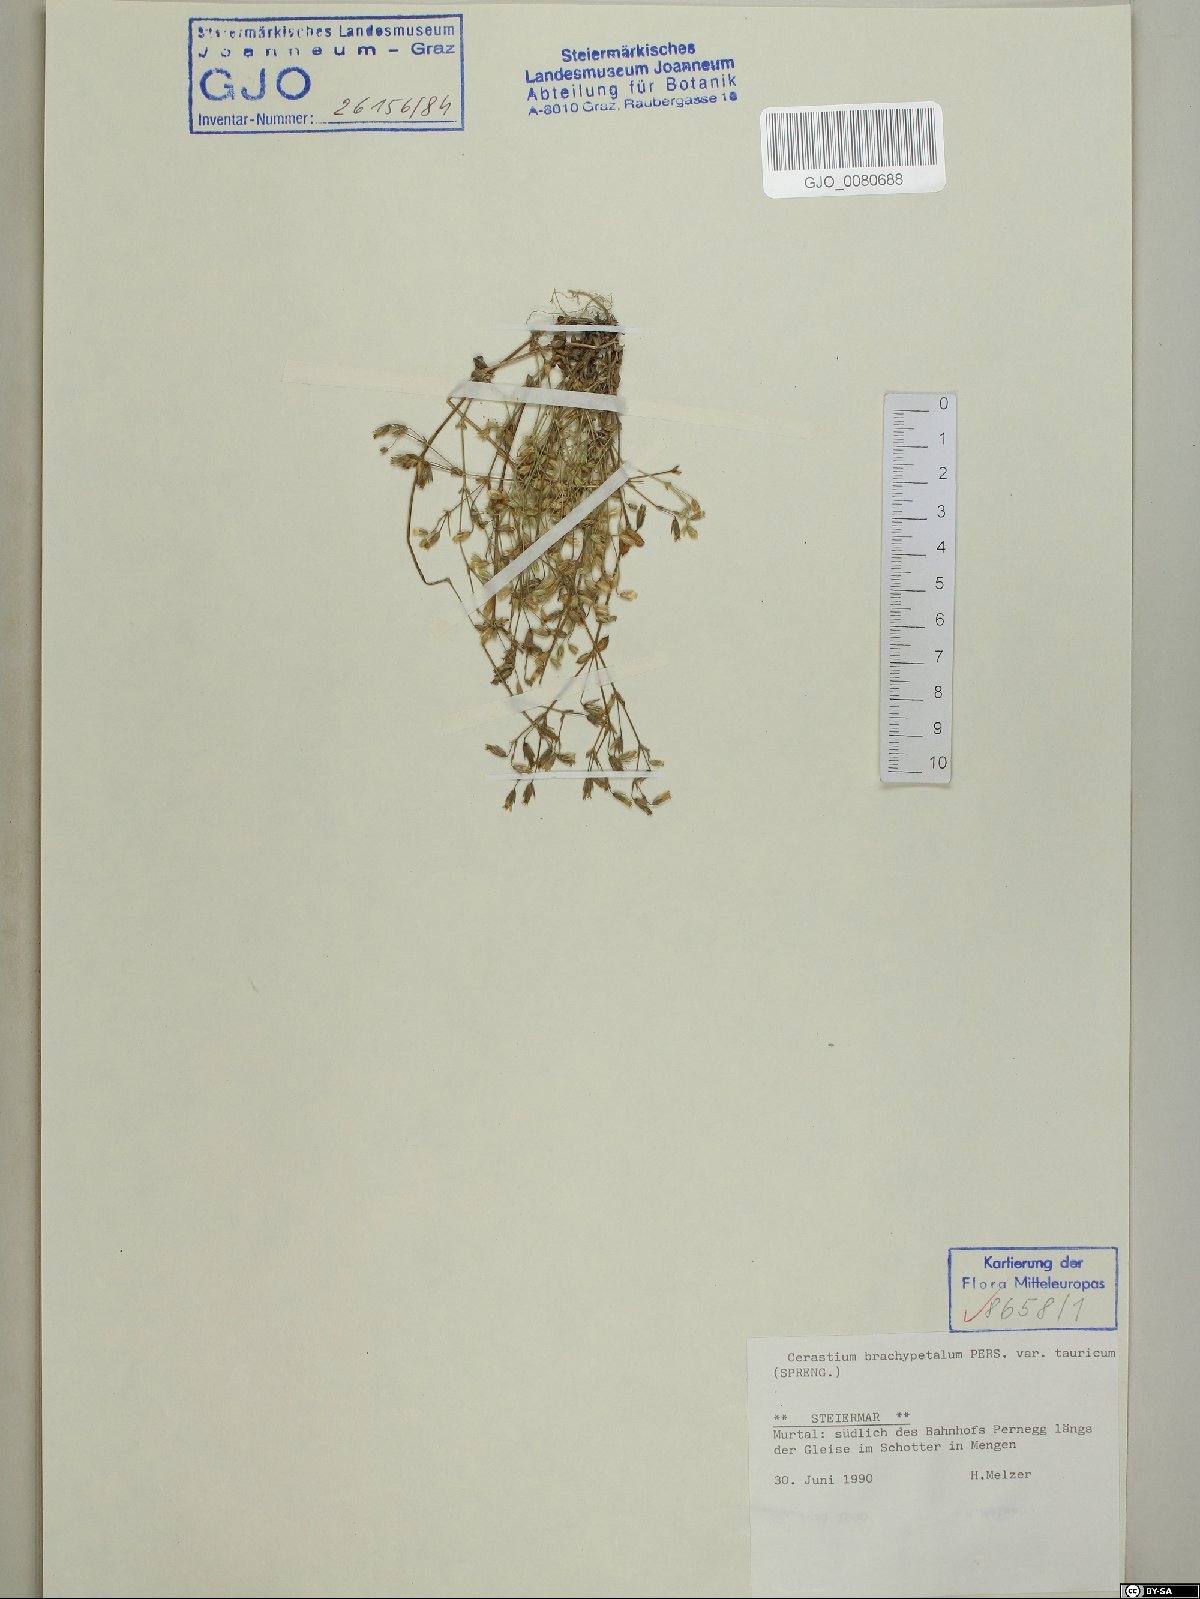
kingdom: Plantae
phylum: Tracheophyta
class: Magnoliopsida
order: Caryophyllales
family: Caryophyllaceae
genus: Cerastium
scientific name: Cerastium brachypetalum
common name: Grey mouse-ear
